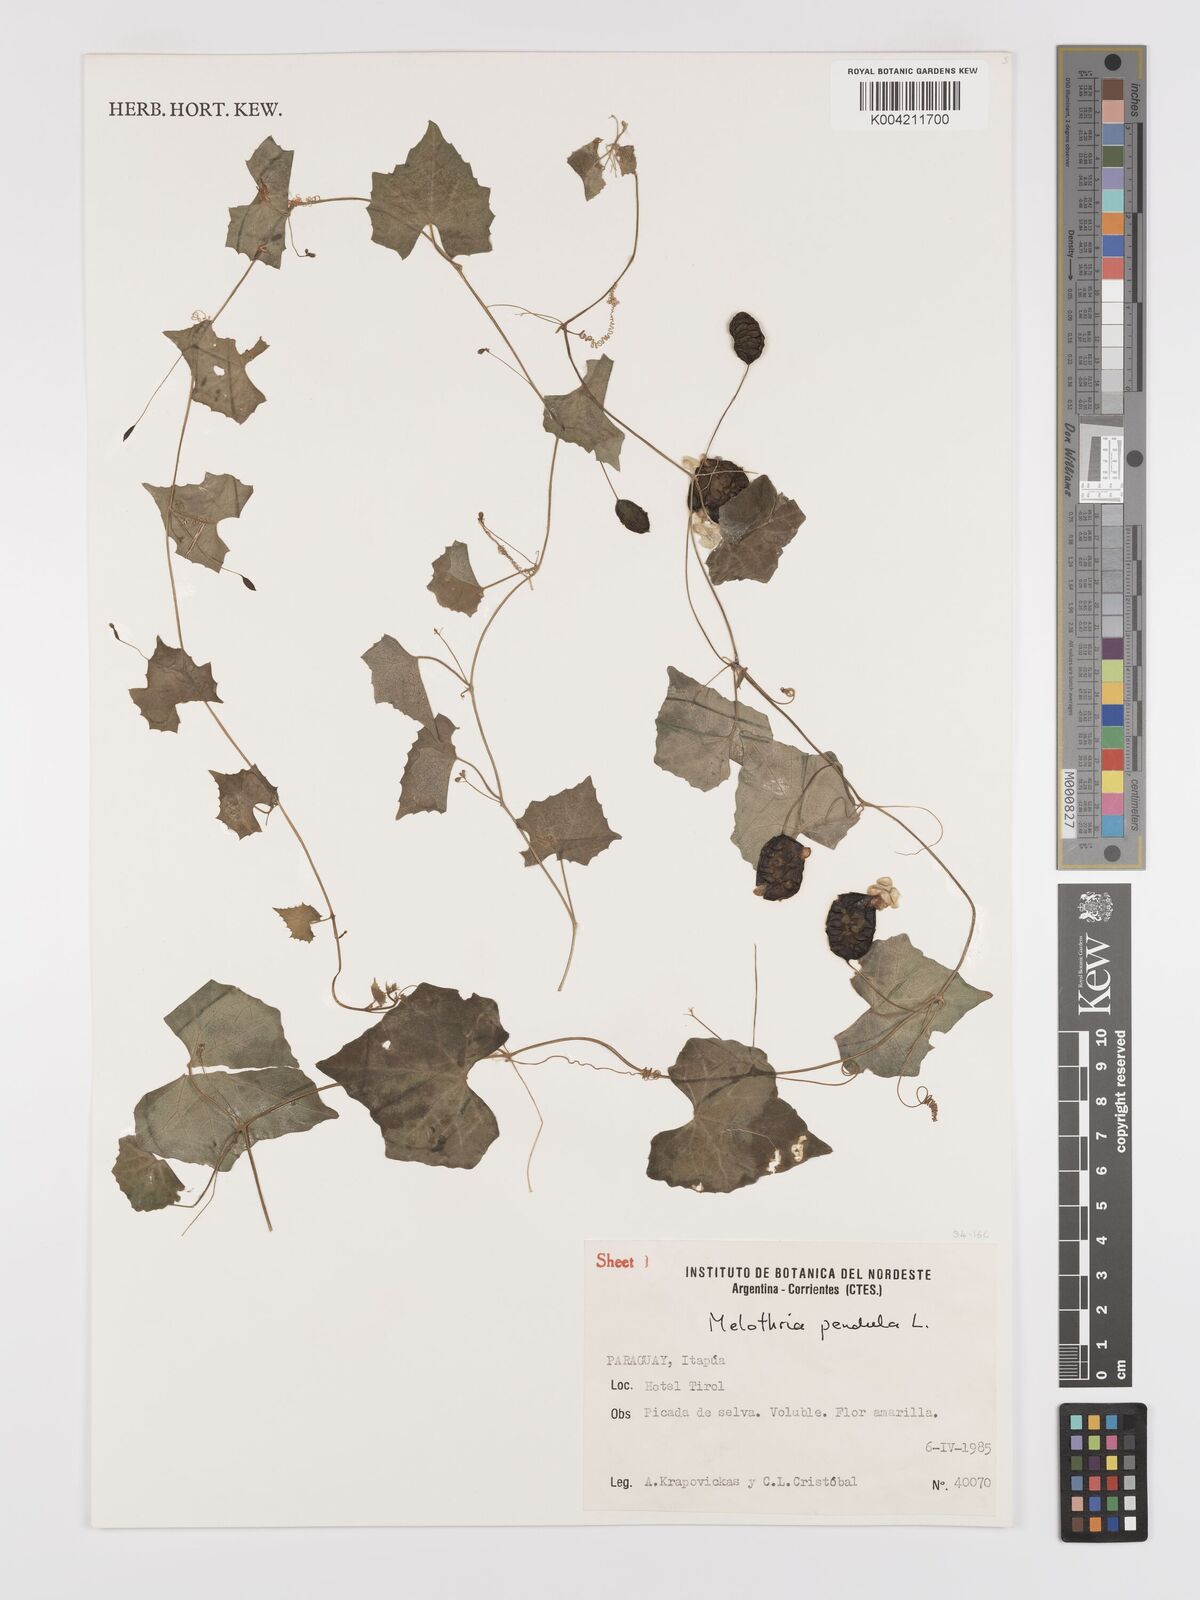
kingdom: Plantae
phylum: Tracheophyta
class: Magnoliopsida
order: Cucurbitales
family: Cucurbitaceae
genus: Melothria
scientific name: Melothria
